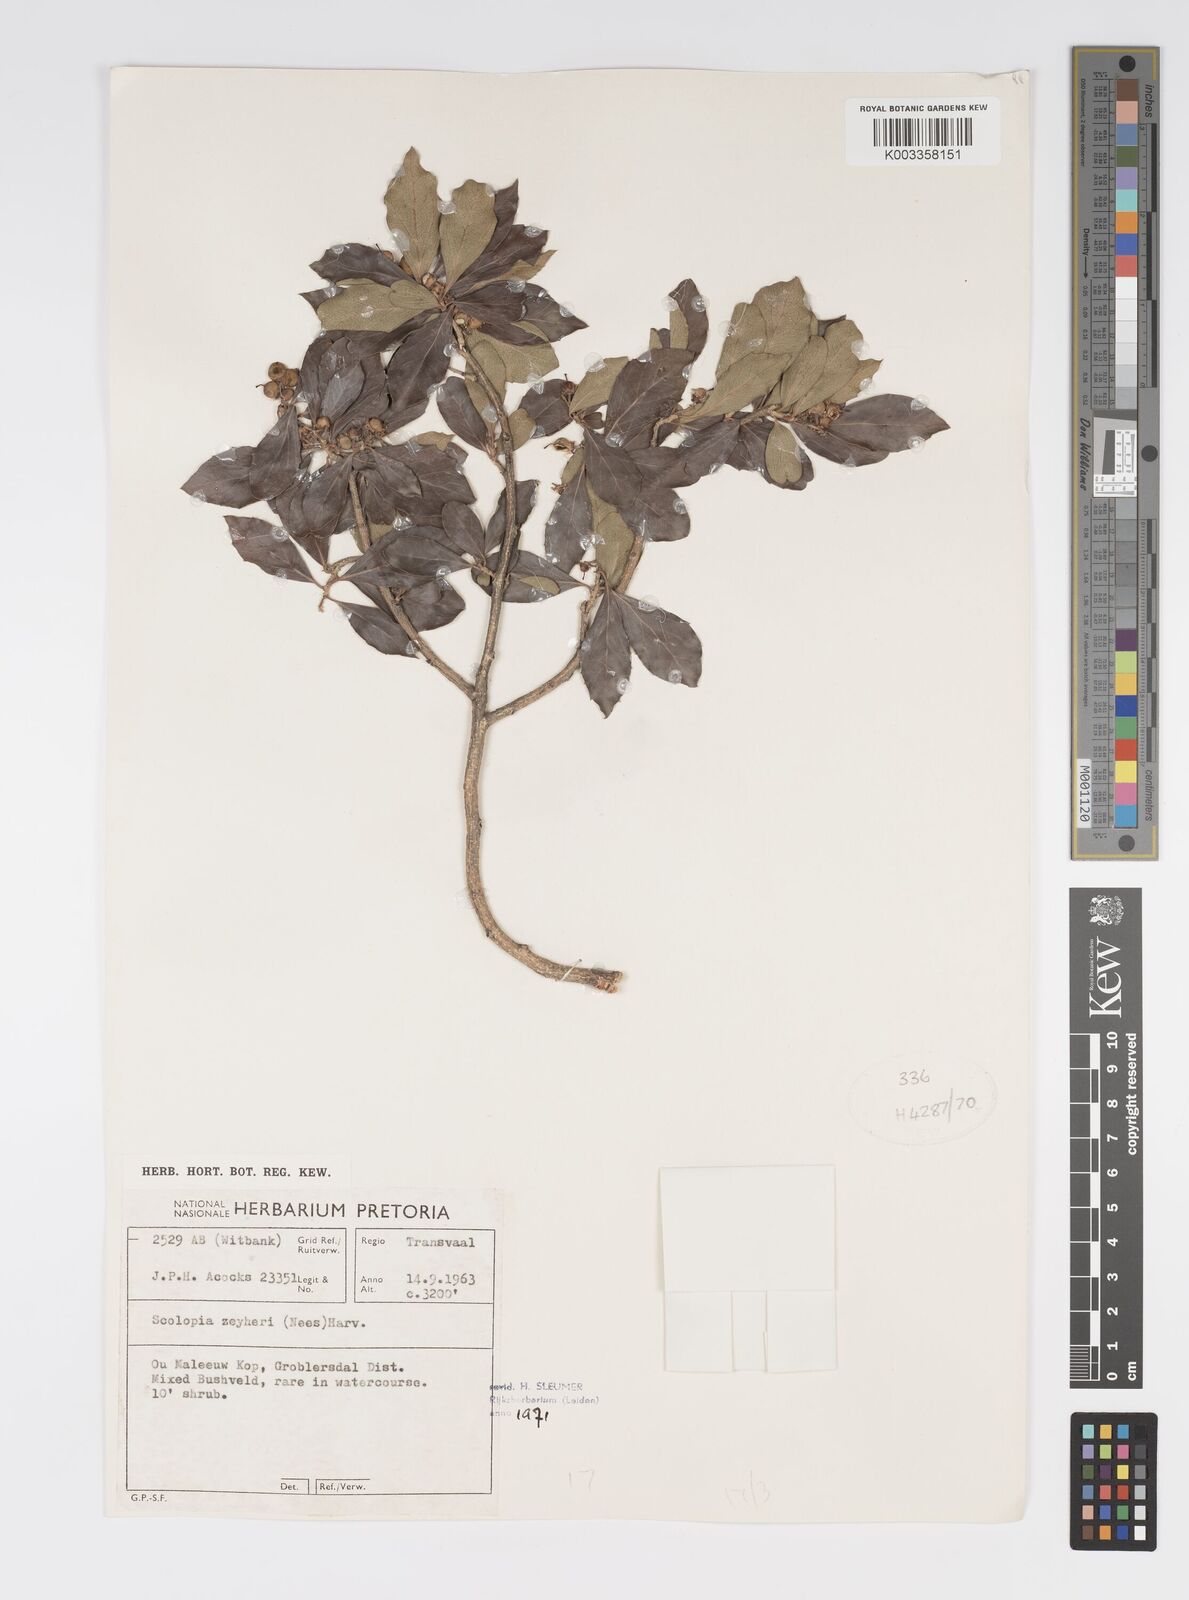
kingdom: Plantae
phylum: Tracheophyta
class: Magnoliopsida
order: Malpighiales
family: Salicaceae
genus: Scolopia
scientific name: Scolopia zeyheri
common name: Thorn pear
